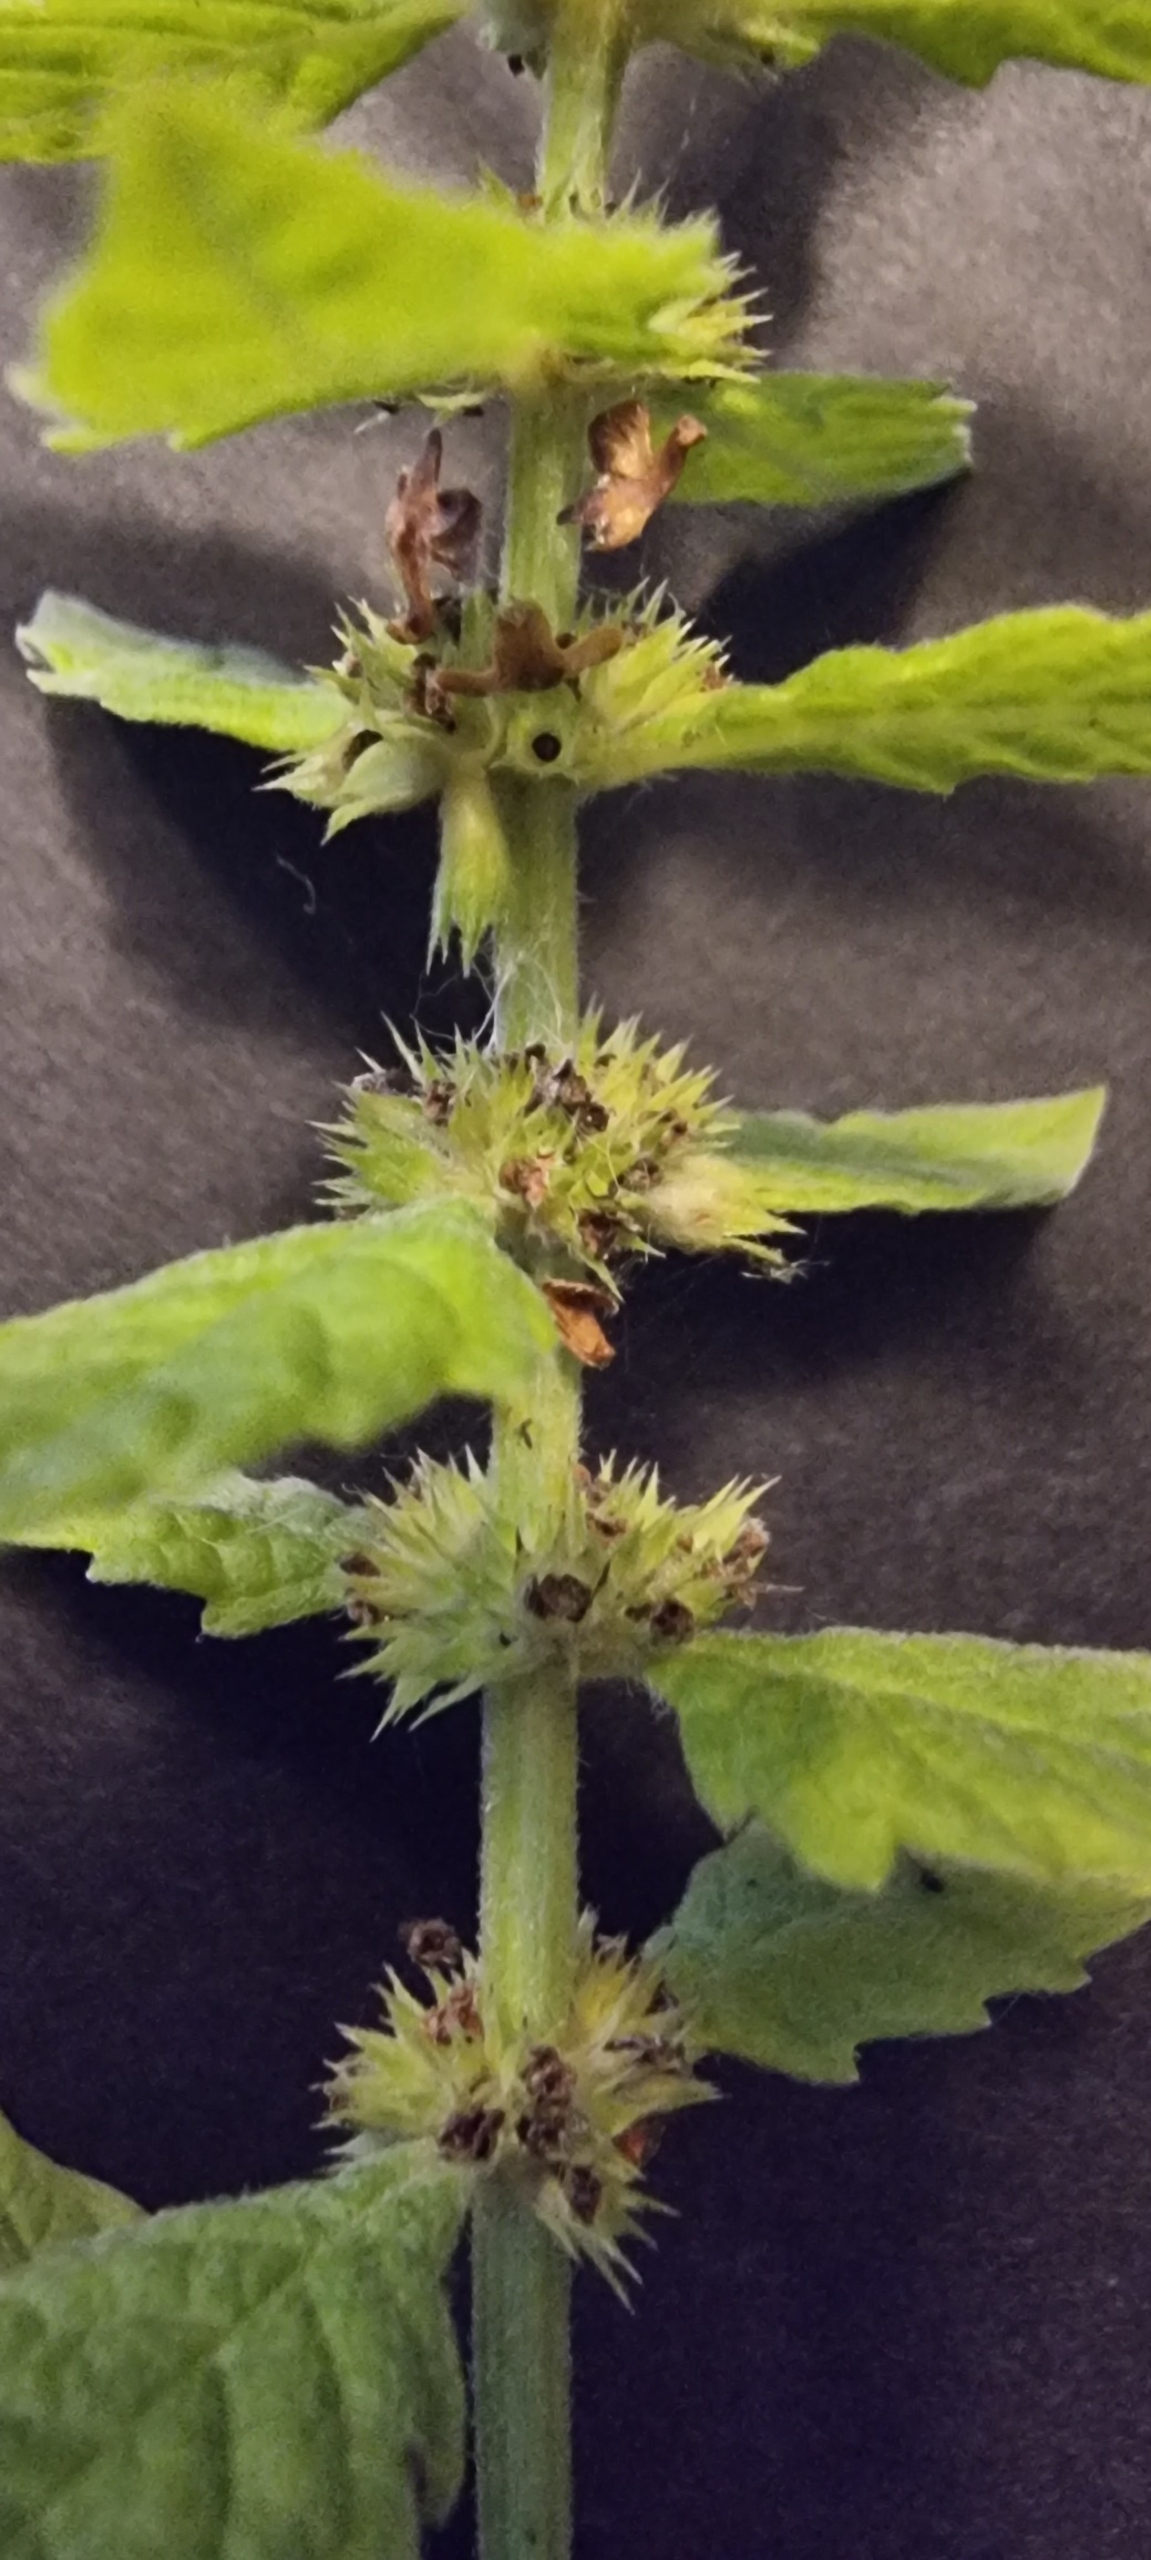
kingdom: Plantae
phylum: Tracheophyta
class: Magnoliopsida
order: Lamiales
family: Lamiaceae
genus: Lycopus
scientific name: Lycopus europaeus
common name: Sværtevæld
